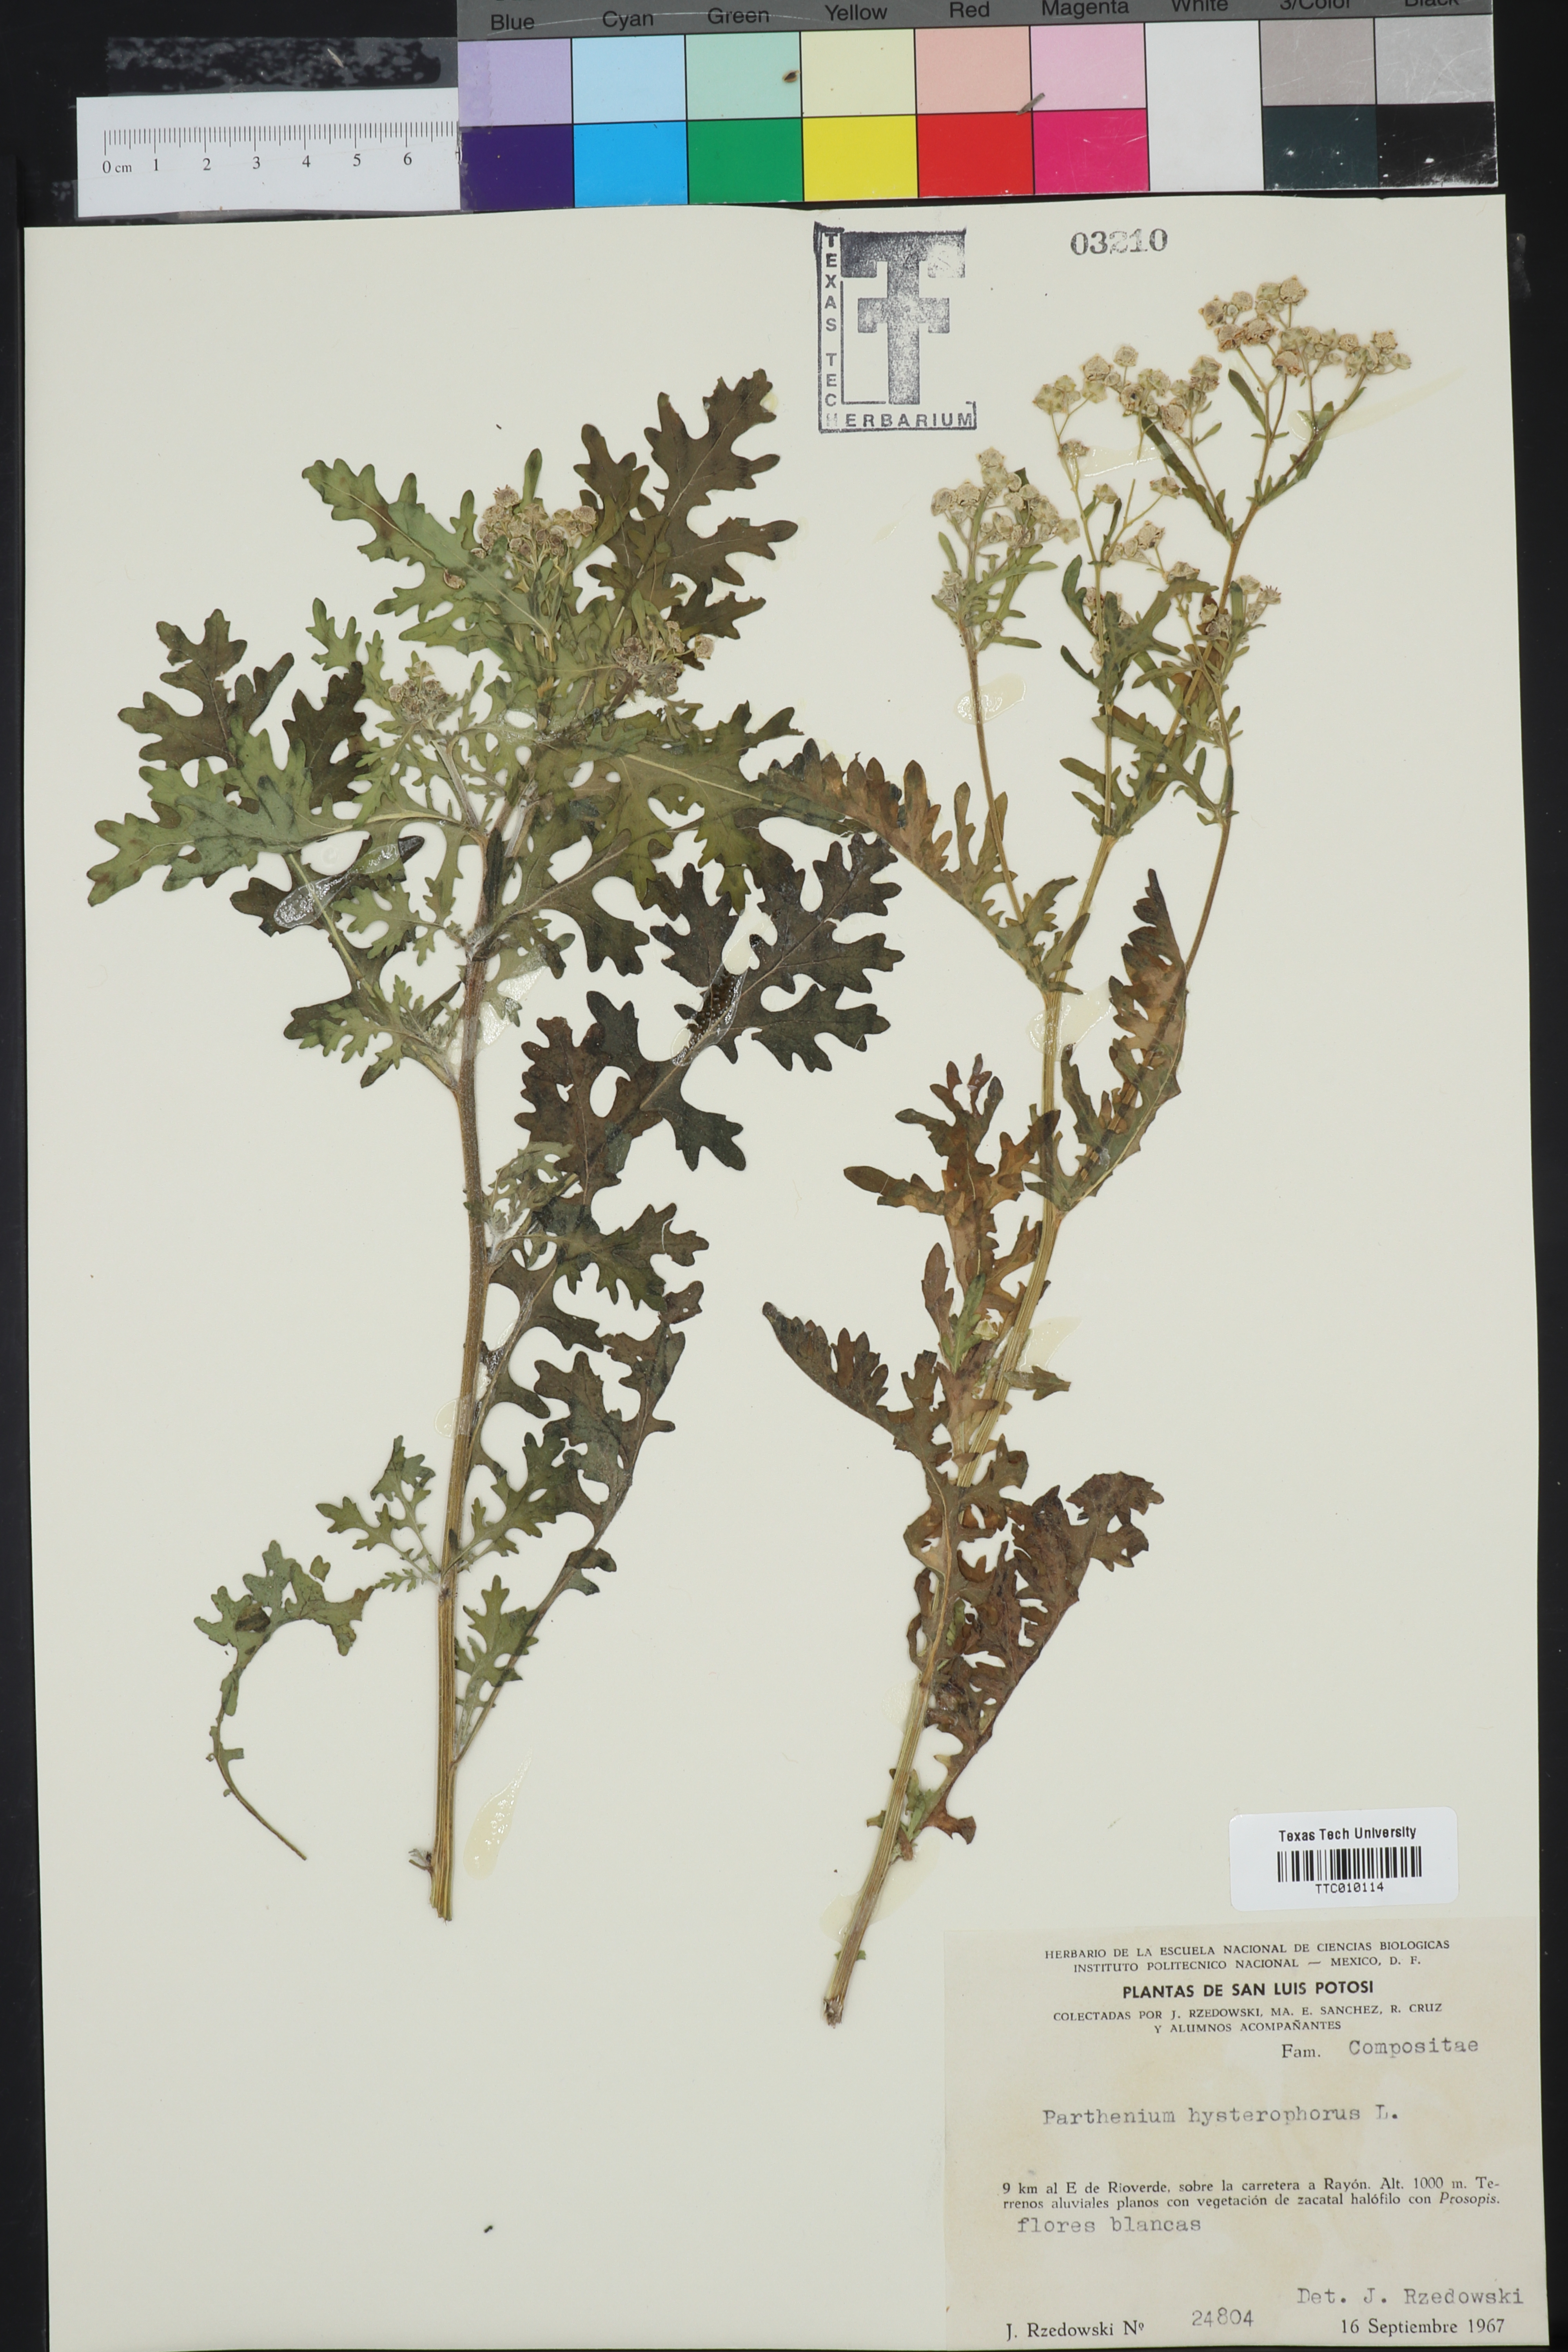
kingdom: Plantae
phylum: Tracheophyta
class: Magnoliopsida
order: Asterales
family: Asteraceae
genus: Parthenium
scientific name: Parthenium hysterophorus
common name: Santa maria feverfew
